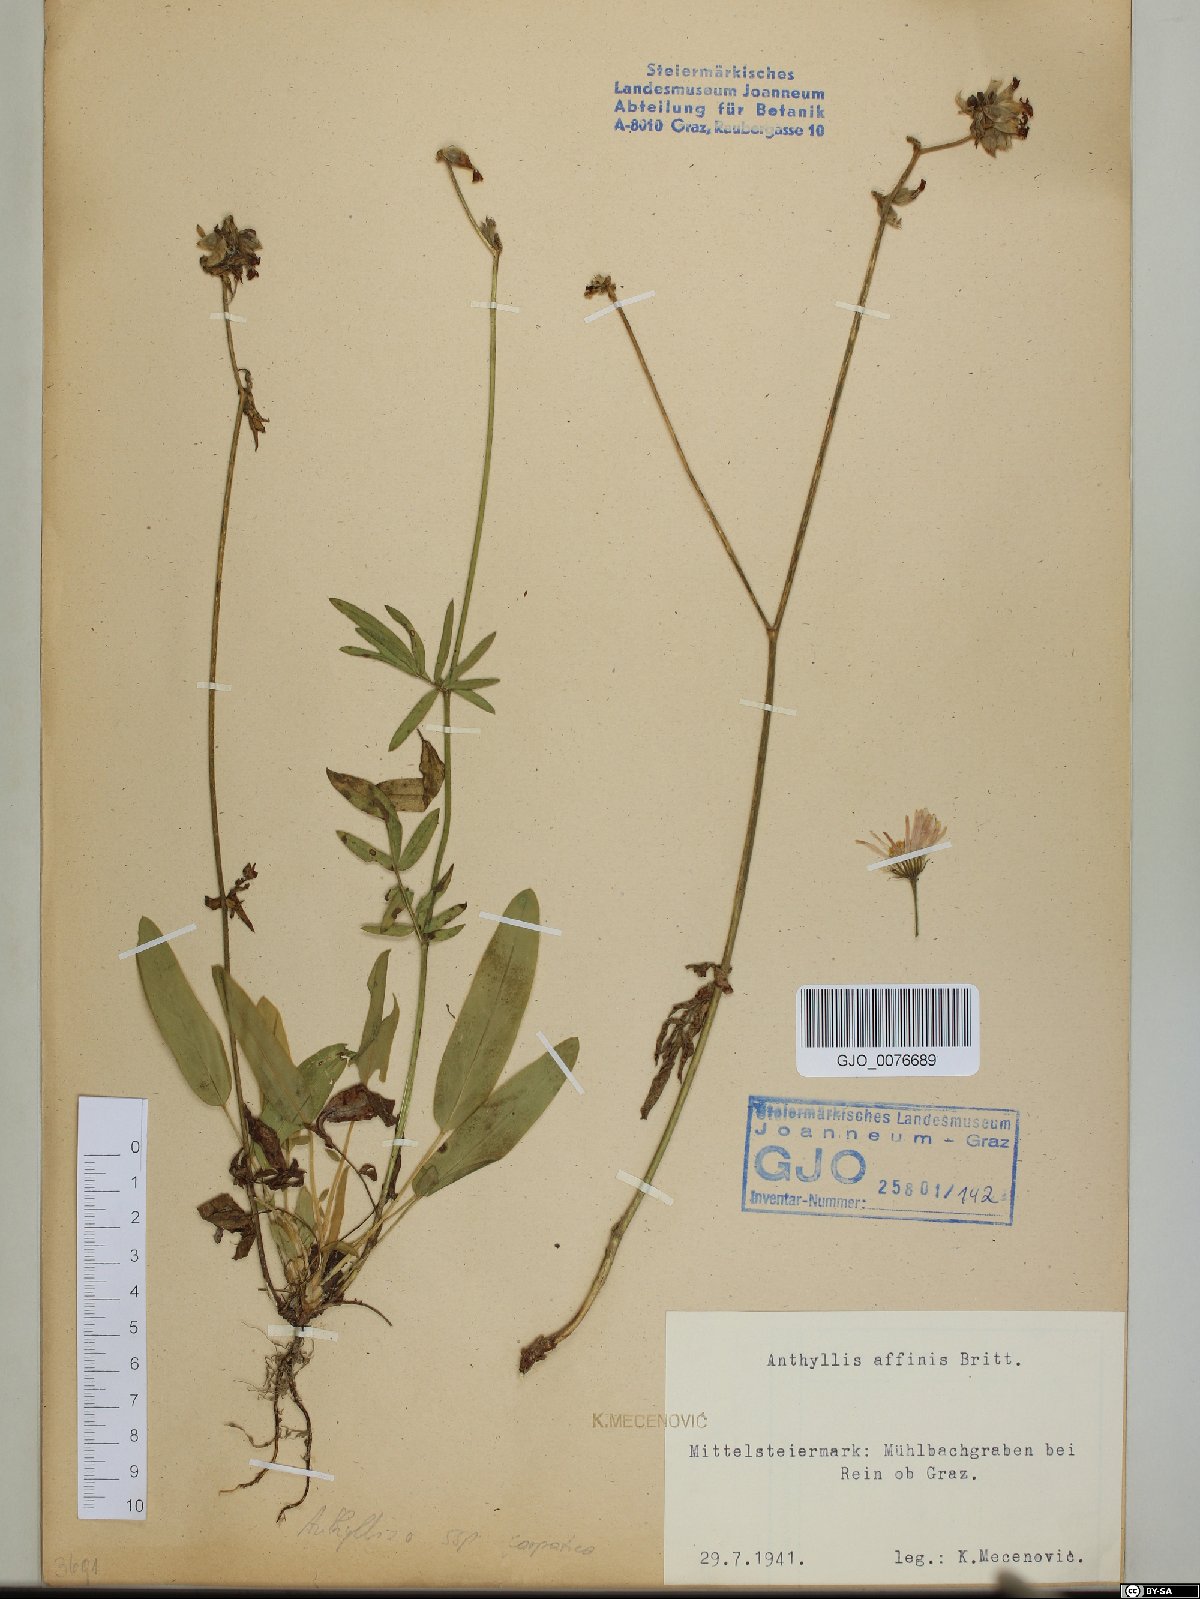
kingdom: Plantae
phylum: Tracheophyta
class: Magnoliopsida
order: Fabales
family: Fabaceae
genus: Anthyllis
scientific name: Anthyllis vulneraria
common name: Kidney vetch
